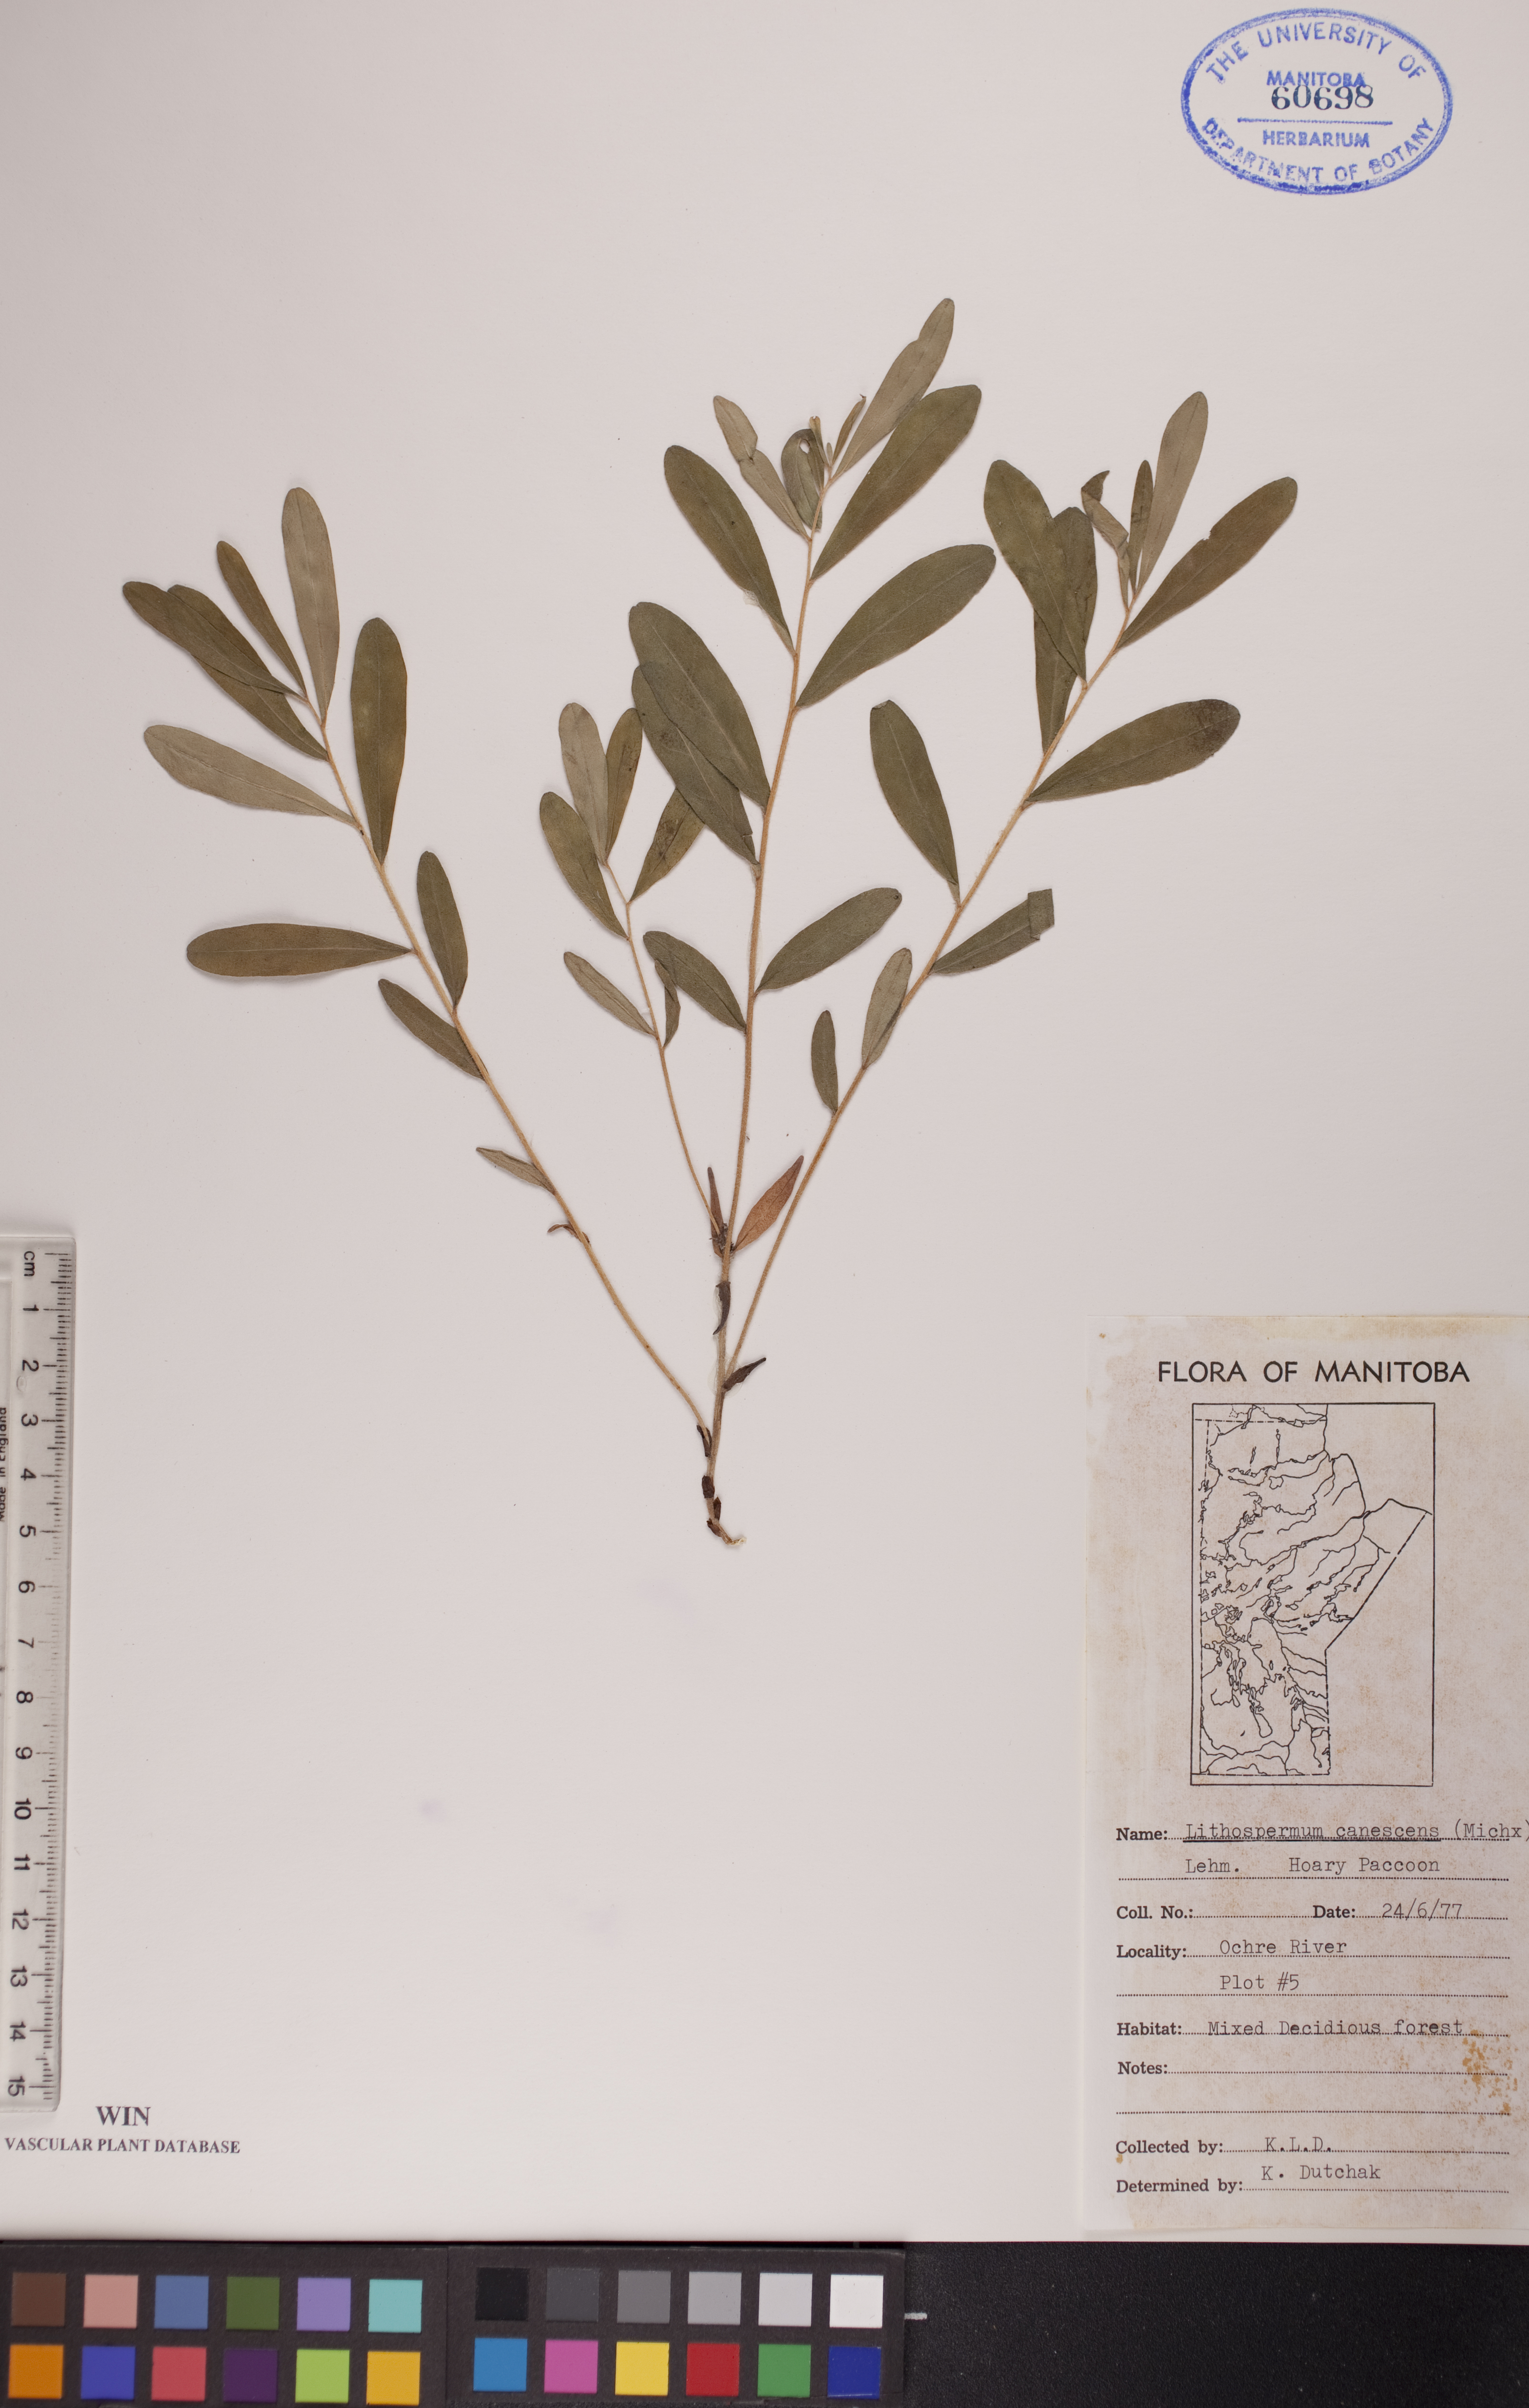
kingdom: Plantae
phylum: Tracheophyta
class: Magnoliopsida
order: Boraginales
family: Boraginaceae
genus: Lithospermum
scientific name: Lithospermum canescens
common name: Hoary puccoon
